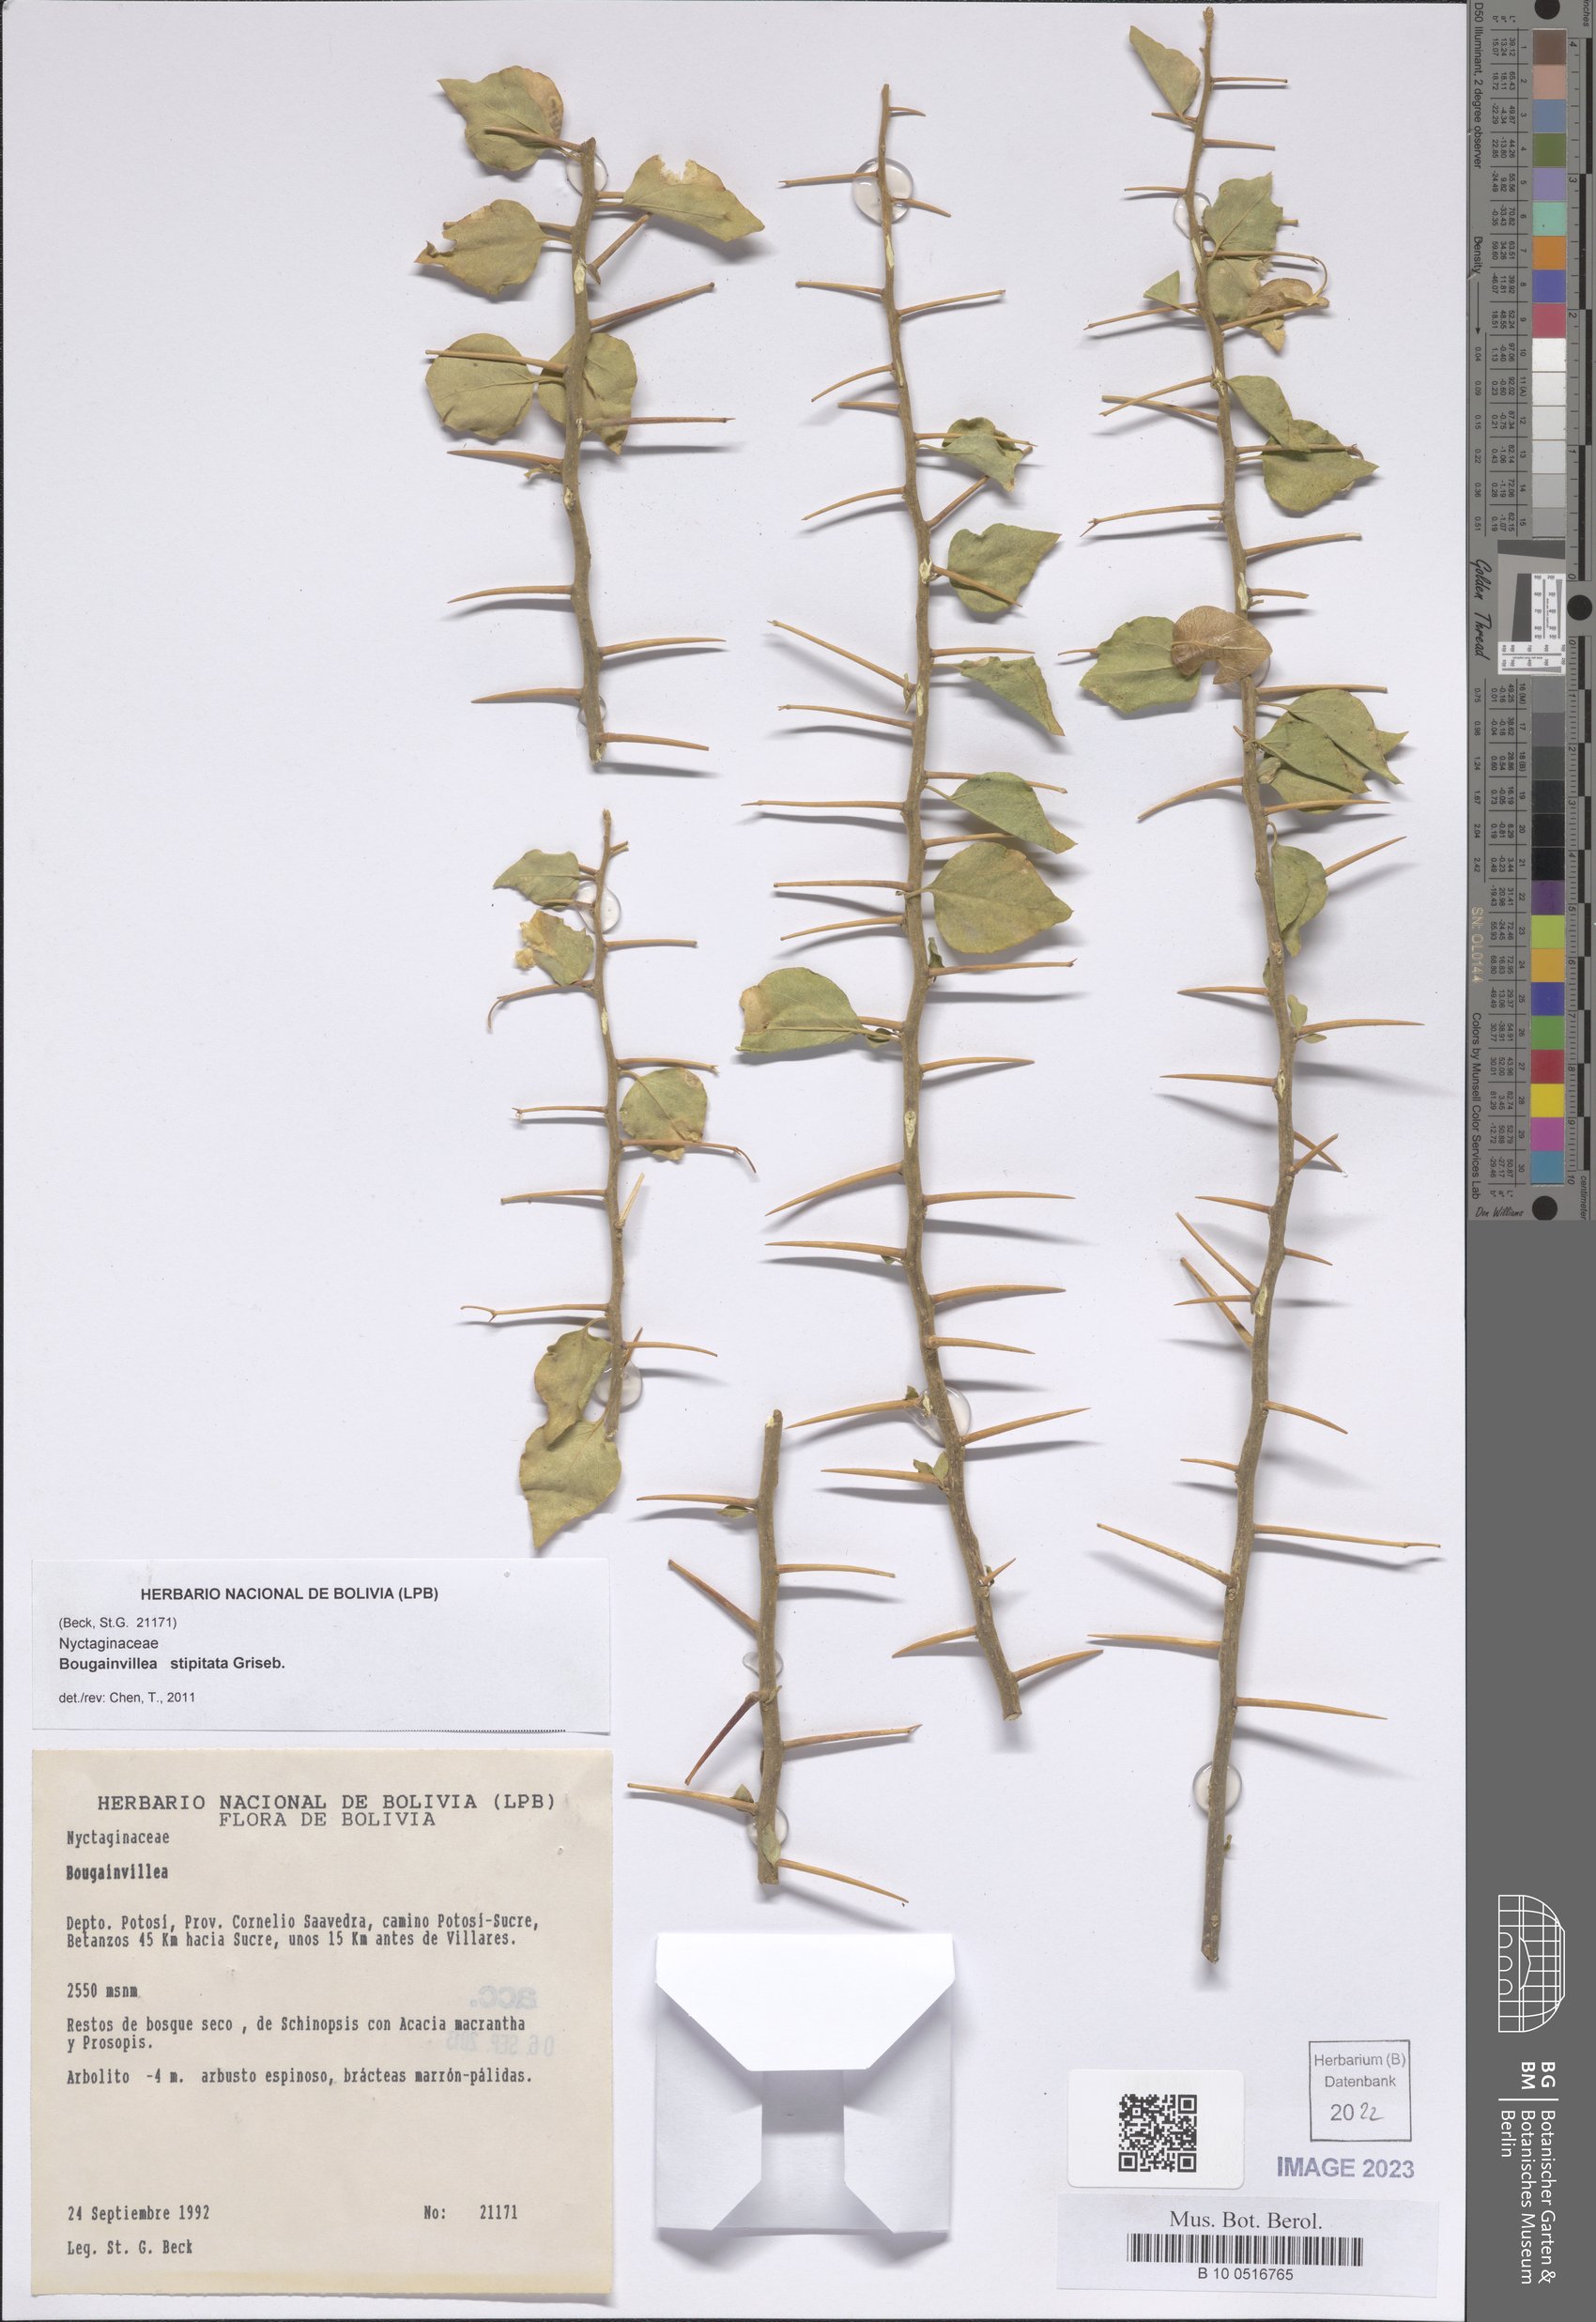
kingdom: Plantae
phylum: Tracheophyta
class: Magnoliopsida
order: Caryophyllales
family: Nyctaginaceae
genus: Bougainvillea
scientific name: Bougainvillea stipitata
